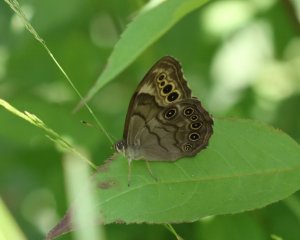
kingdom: Animalia
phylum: Arthropoda
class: Insecta
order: Lepidoptera
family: Nymphalidae
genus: Lethe
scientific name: Lethe anthedon
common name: Northern Pearly-Eye
